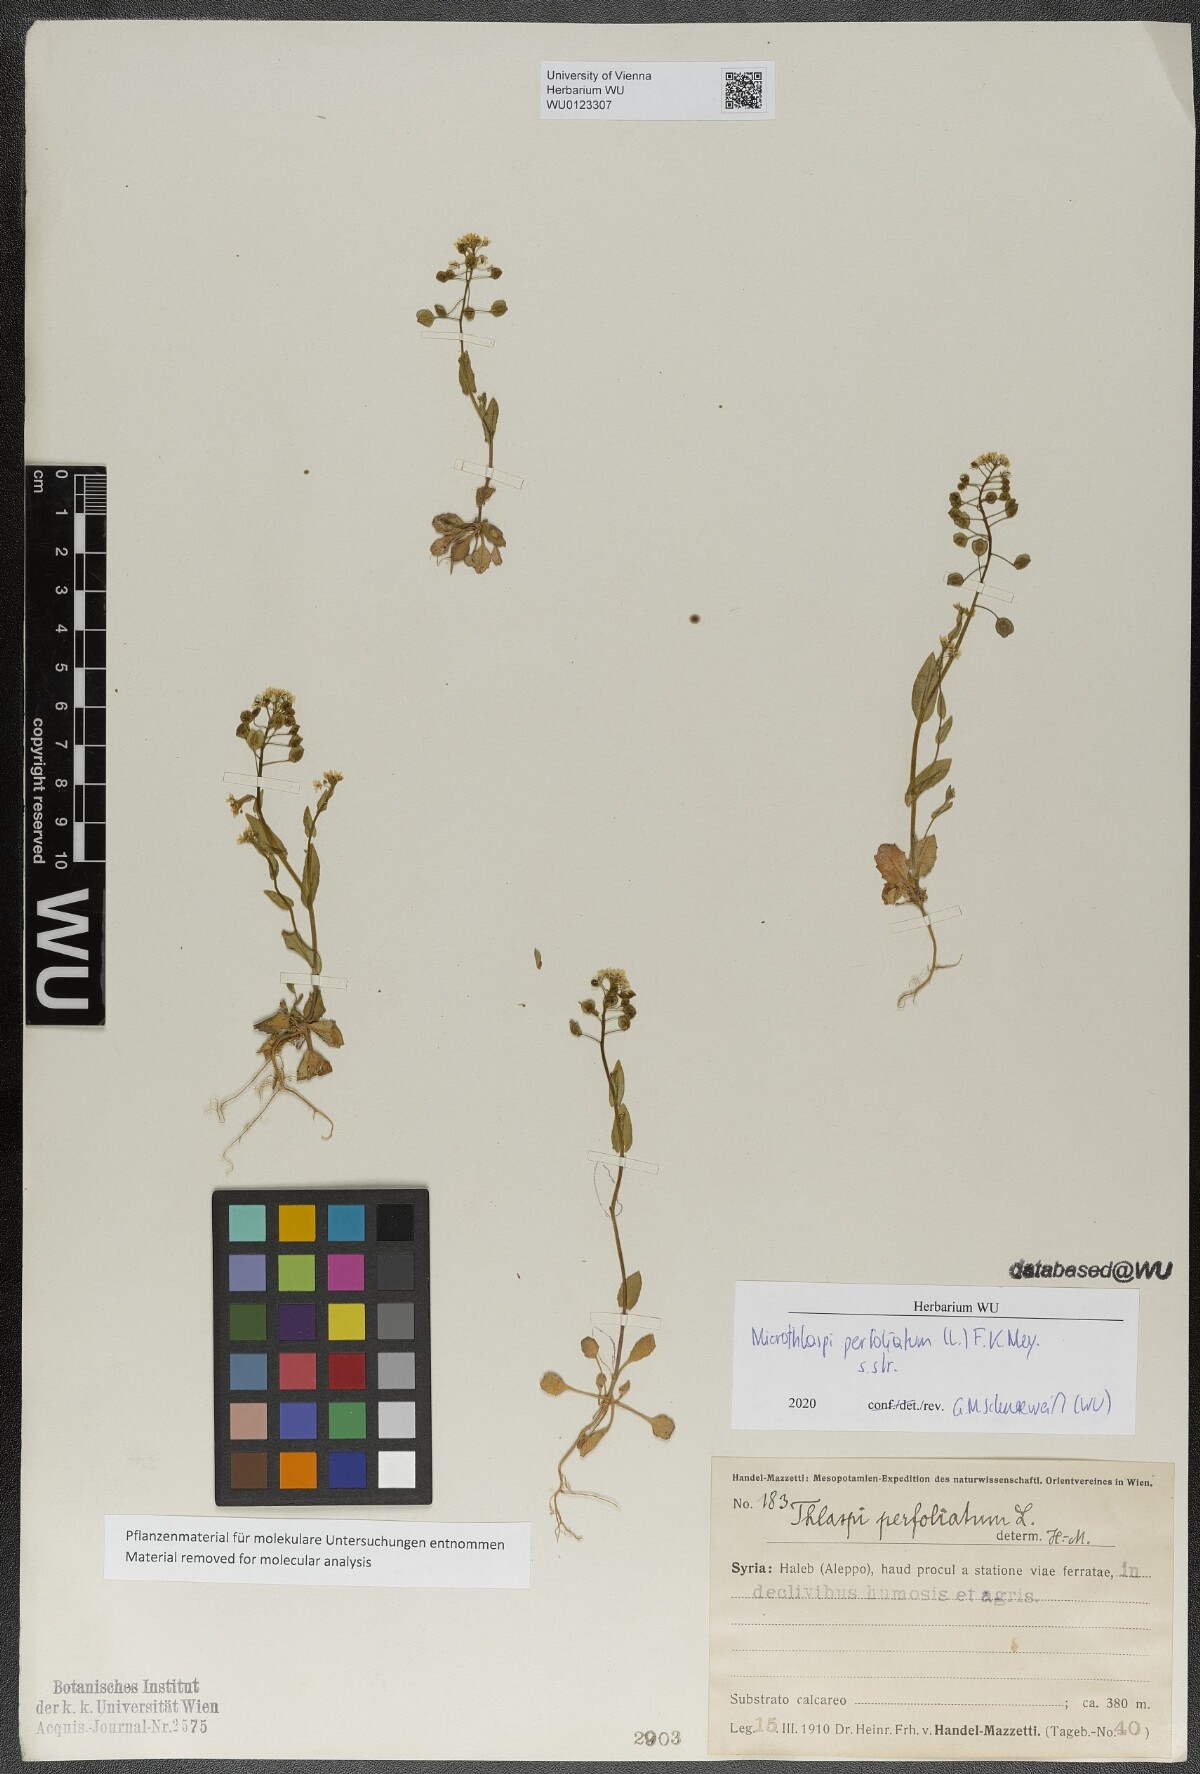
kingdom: Plantae
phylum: Tracheophyta
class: Magnoliopsida
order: Brassicales
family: Brassicaceae
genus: Noccaea
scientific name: Noccaea perfoliata
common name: Perfoliate pennycress
